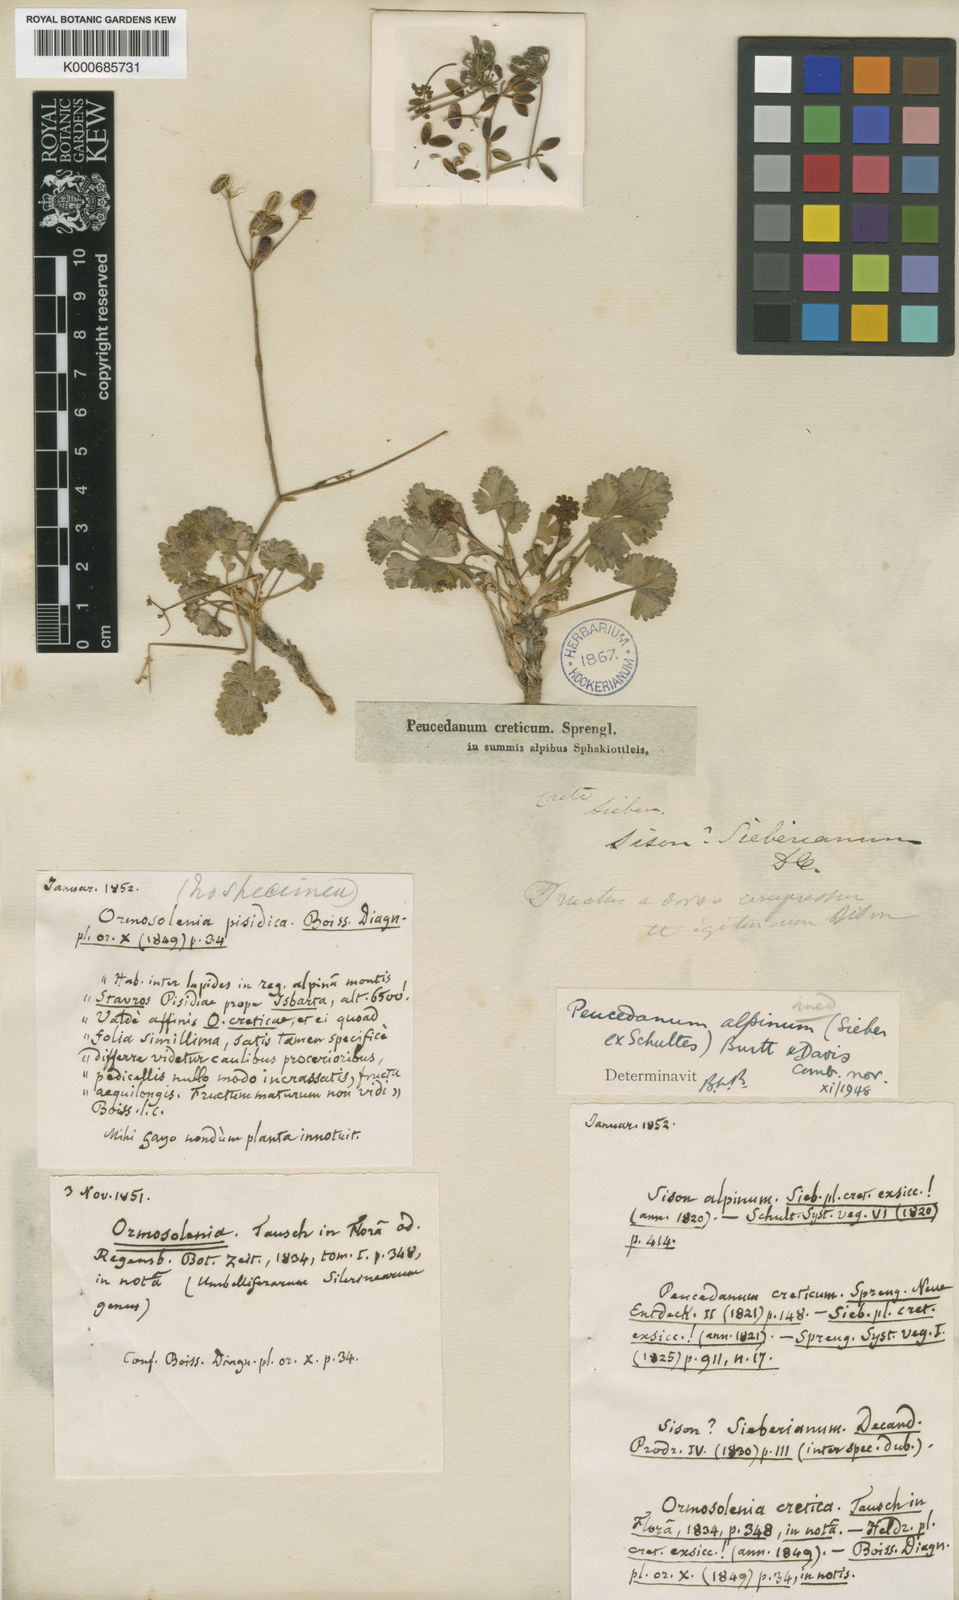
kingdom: Plantae
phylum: Tracheophyta
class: Magnoliopsida
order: Apiales
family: Apiaceae
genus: Ormosolenia
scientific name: Ormosolenia alpina
